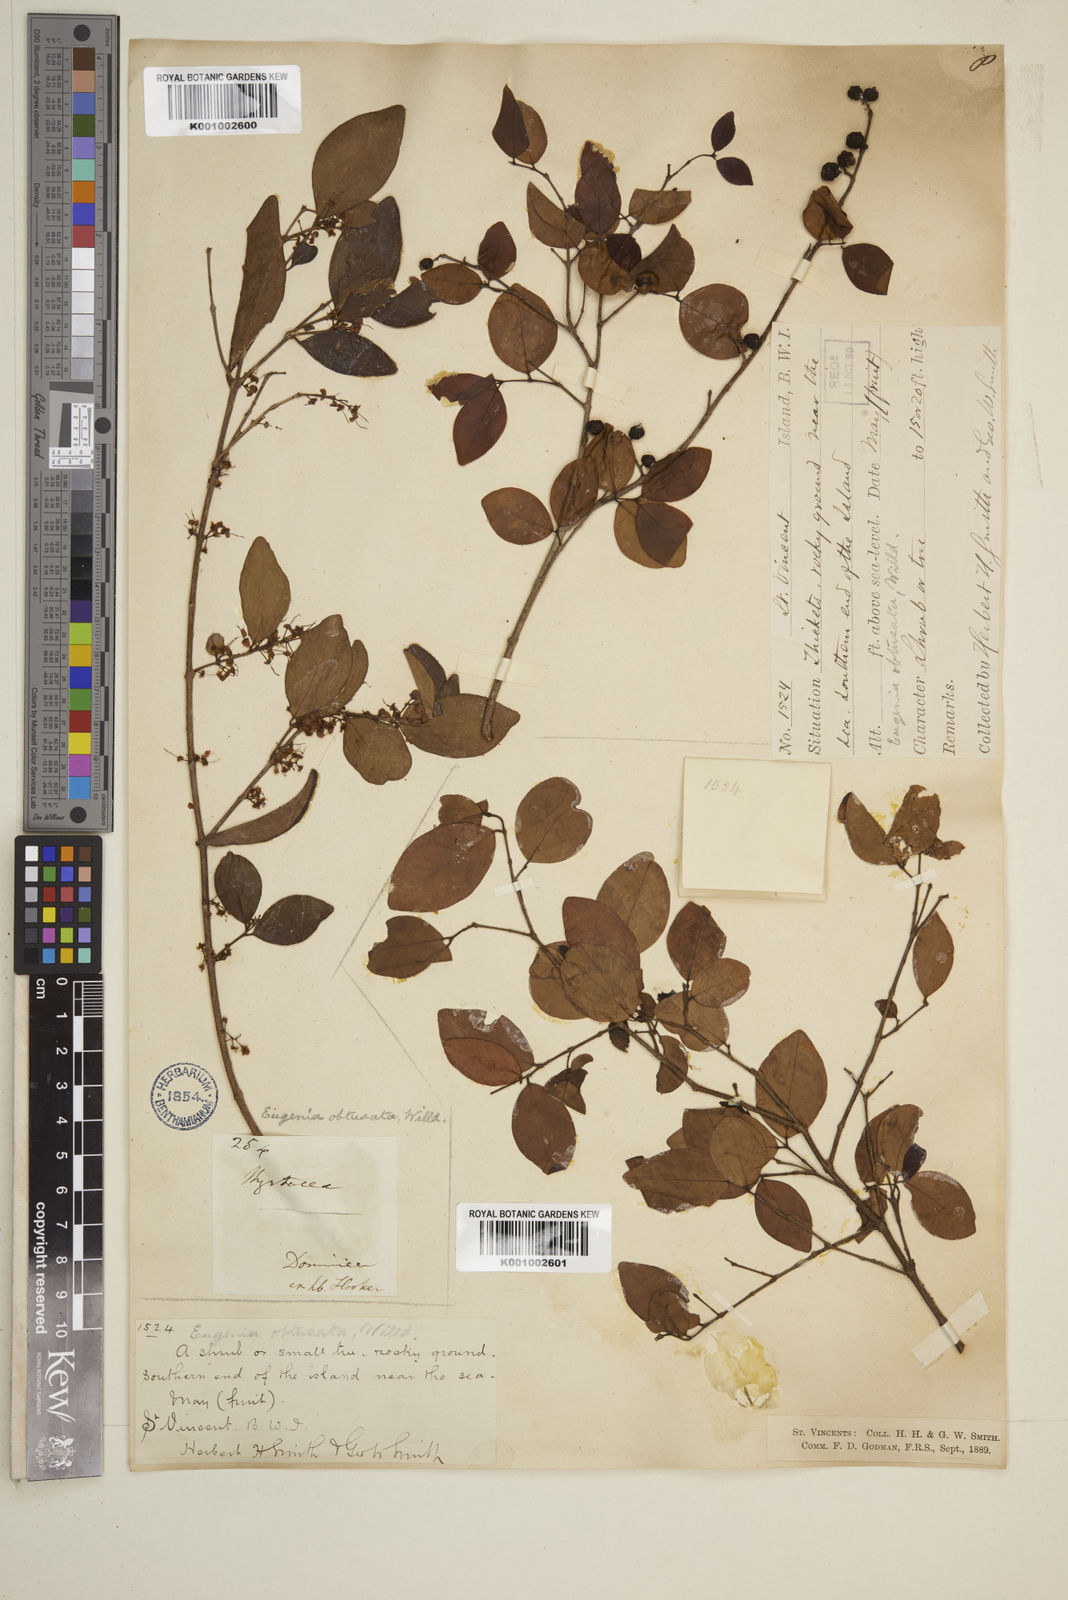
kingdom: Plantae
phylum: Tracheophyta
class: Magnoliopsida
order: Myrtales
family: Myrtaceae
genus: Eugenia
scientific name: Eugenia monticola
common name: Birds berry
